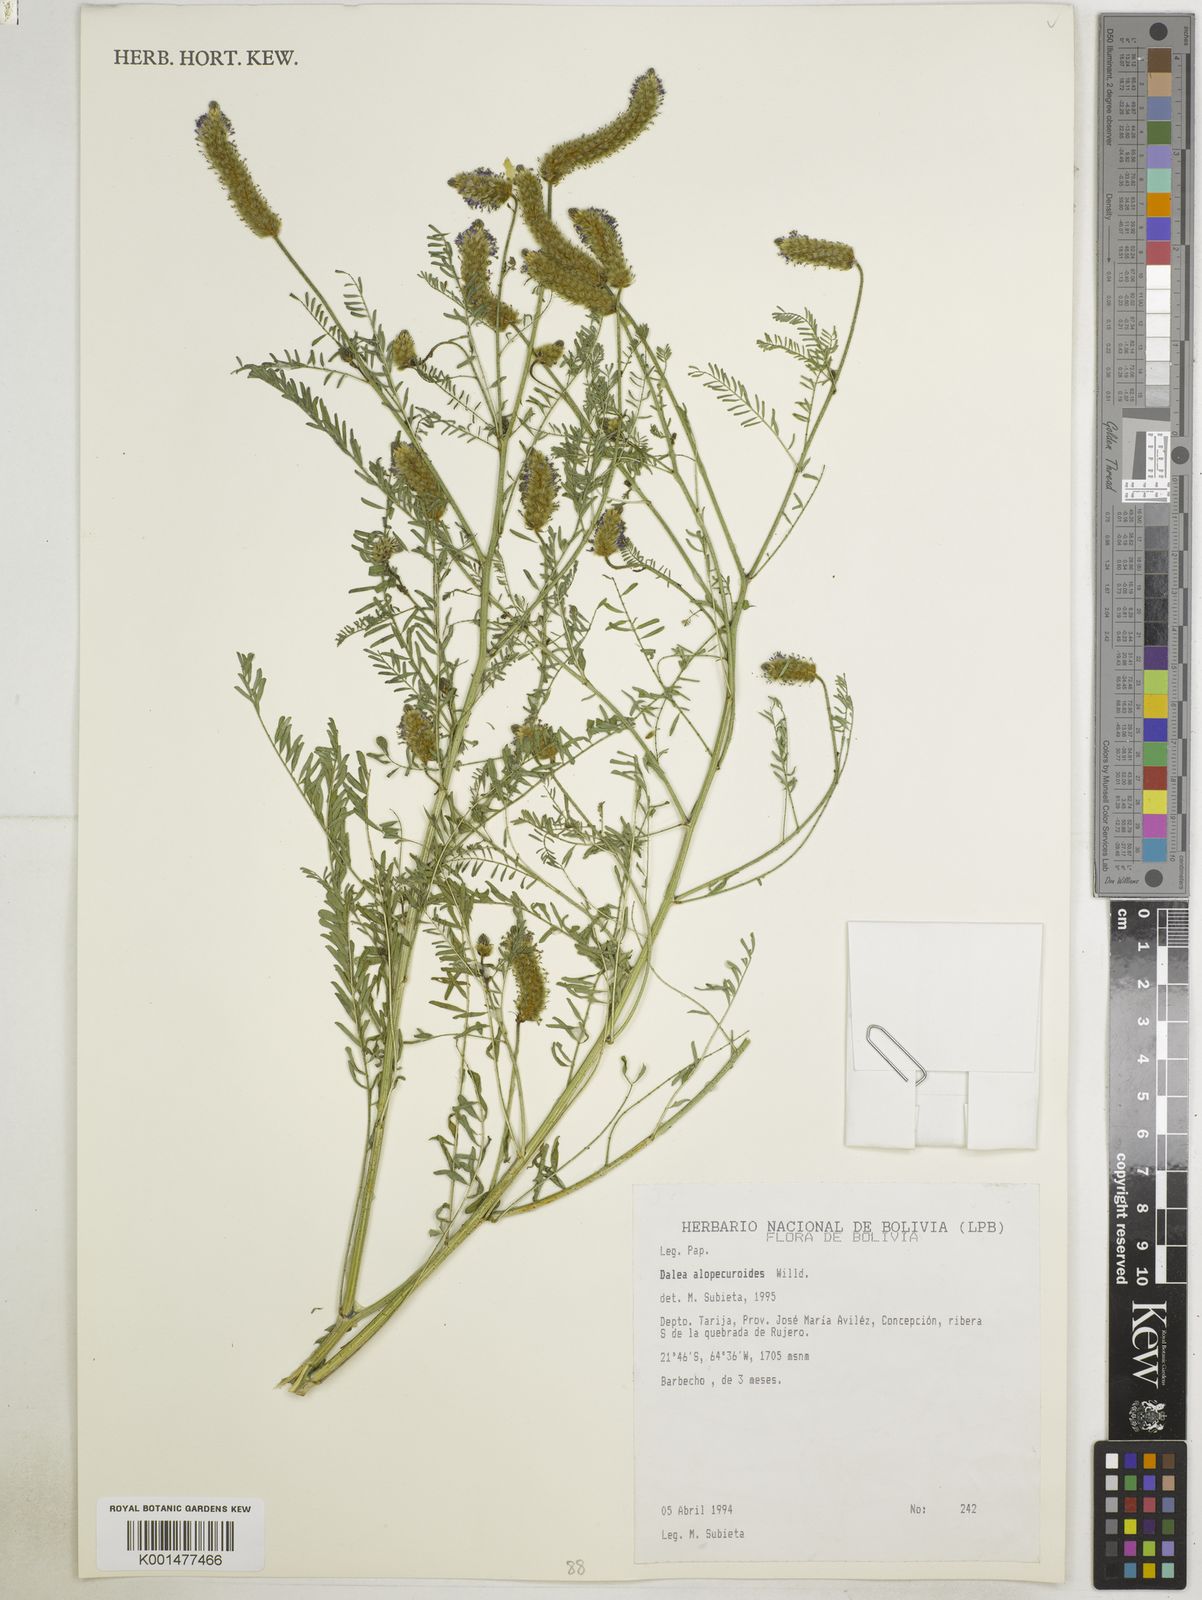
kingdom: Plantae
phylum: Tracheophyta
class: Magnoliopsida
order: Fabales
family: Fabaceae
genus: Dalea
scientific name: Dalea leporina
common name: Foxtail dalea
